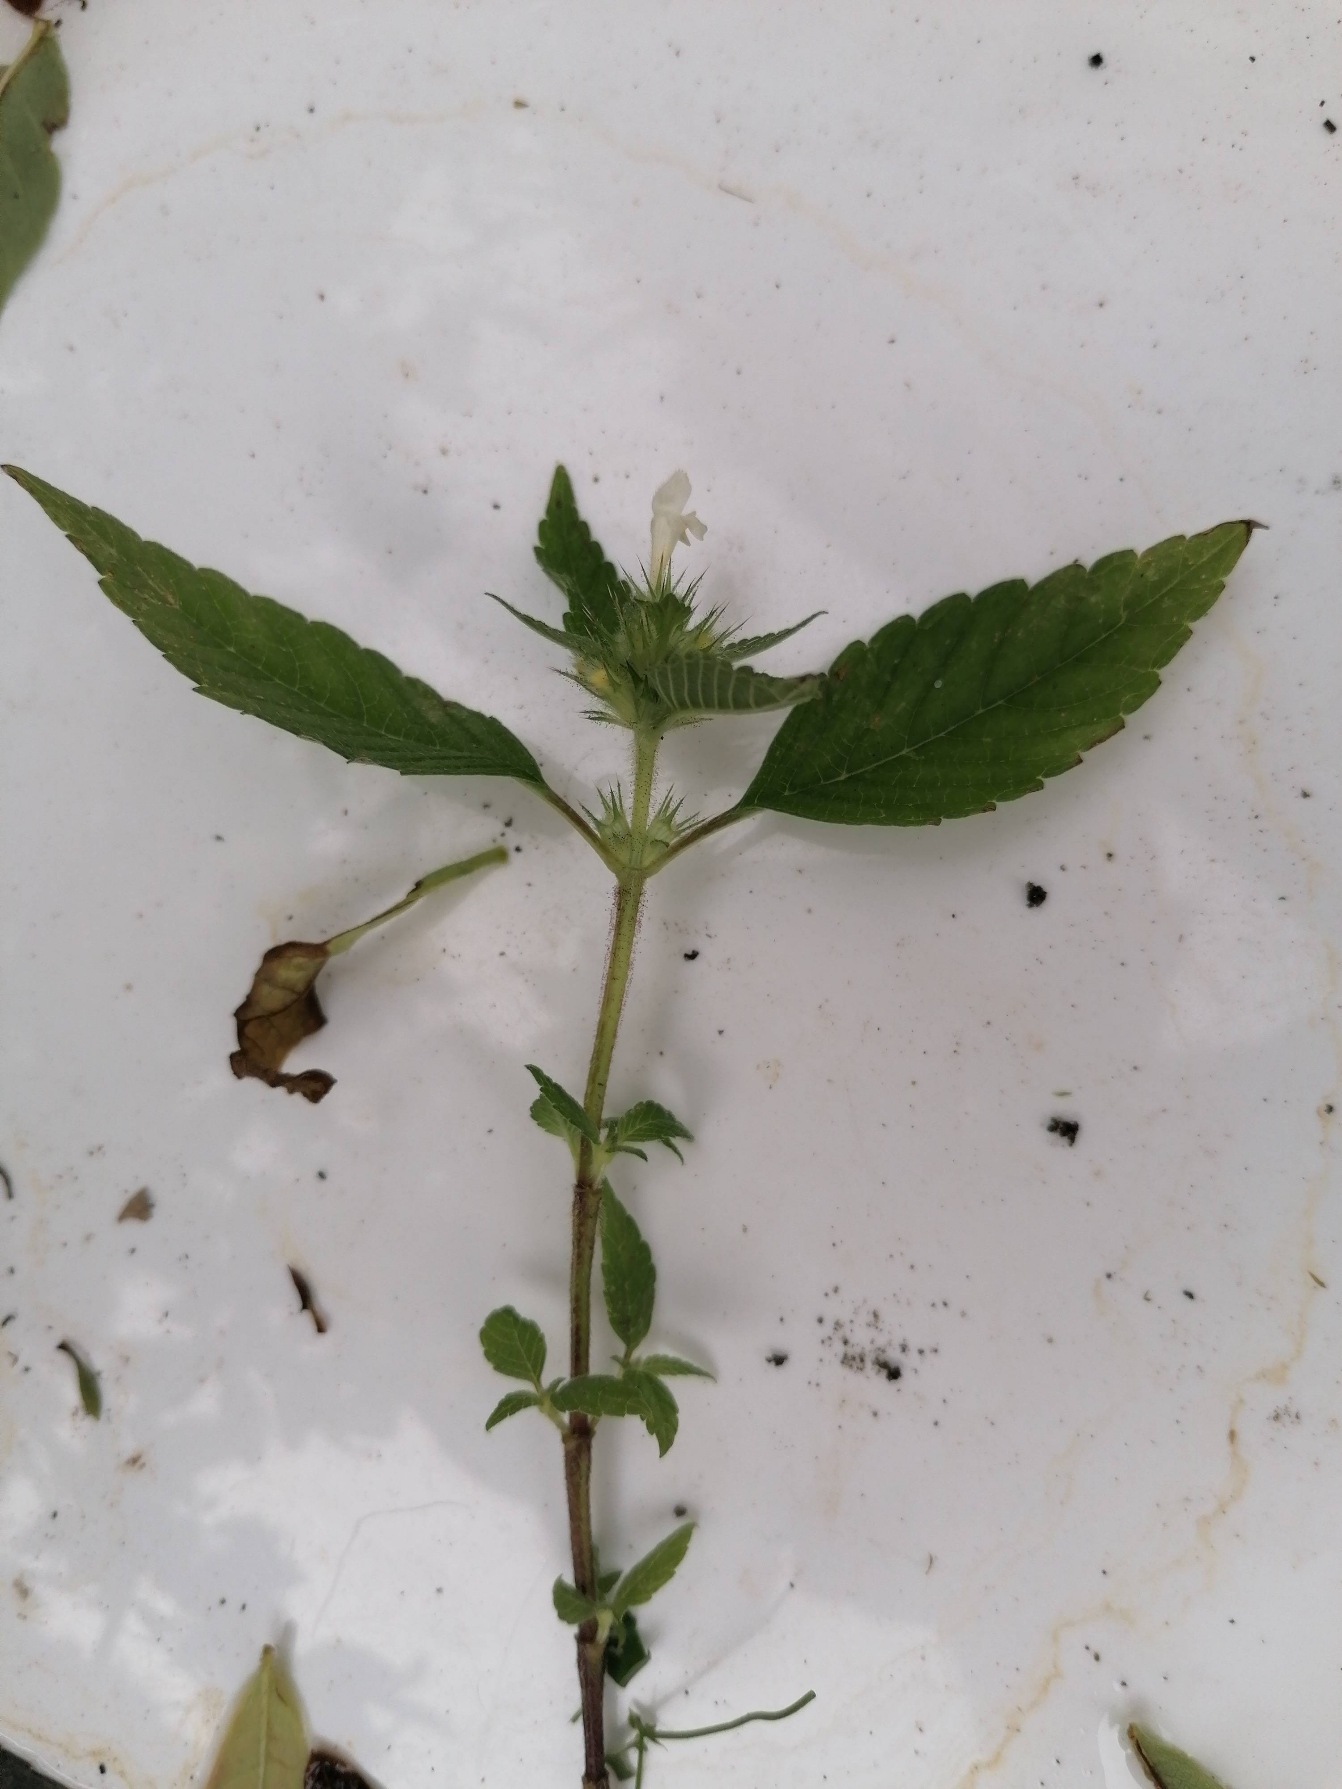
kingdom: Plantae
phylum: Tracheophyta
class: Magnoliopsida
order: Lamiales
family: Lamiaceae
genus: Galeopsis
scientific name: Galeopsis tetrahit
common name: Almindelig hanekro
